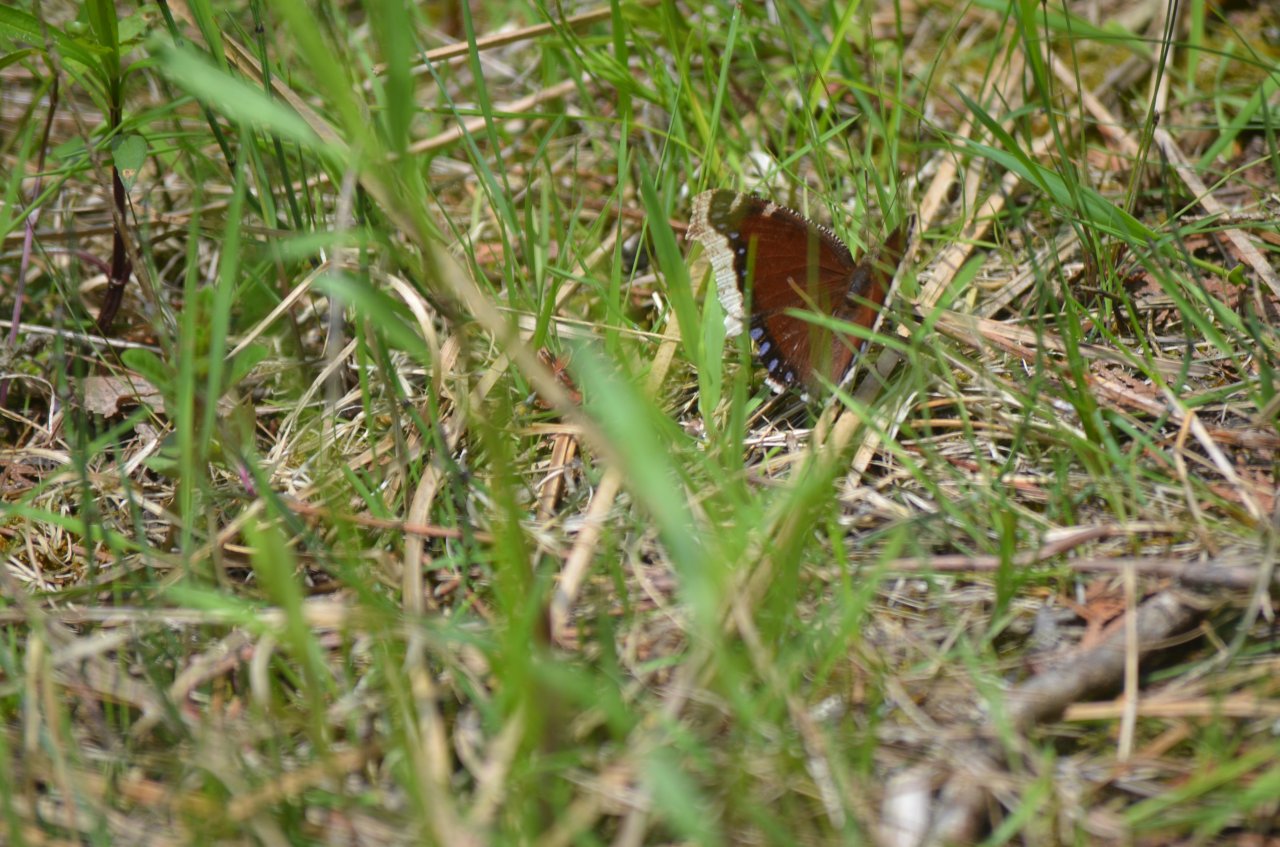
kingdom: Animalia
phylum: Arthropoda
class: Insecta
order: Lepidoptera
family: Nymphalidae
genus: Nymphalis
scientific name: Nymphalis antiopa
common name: Mourning Cloak
